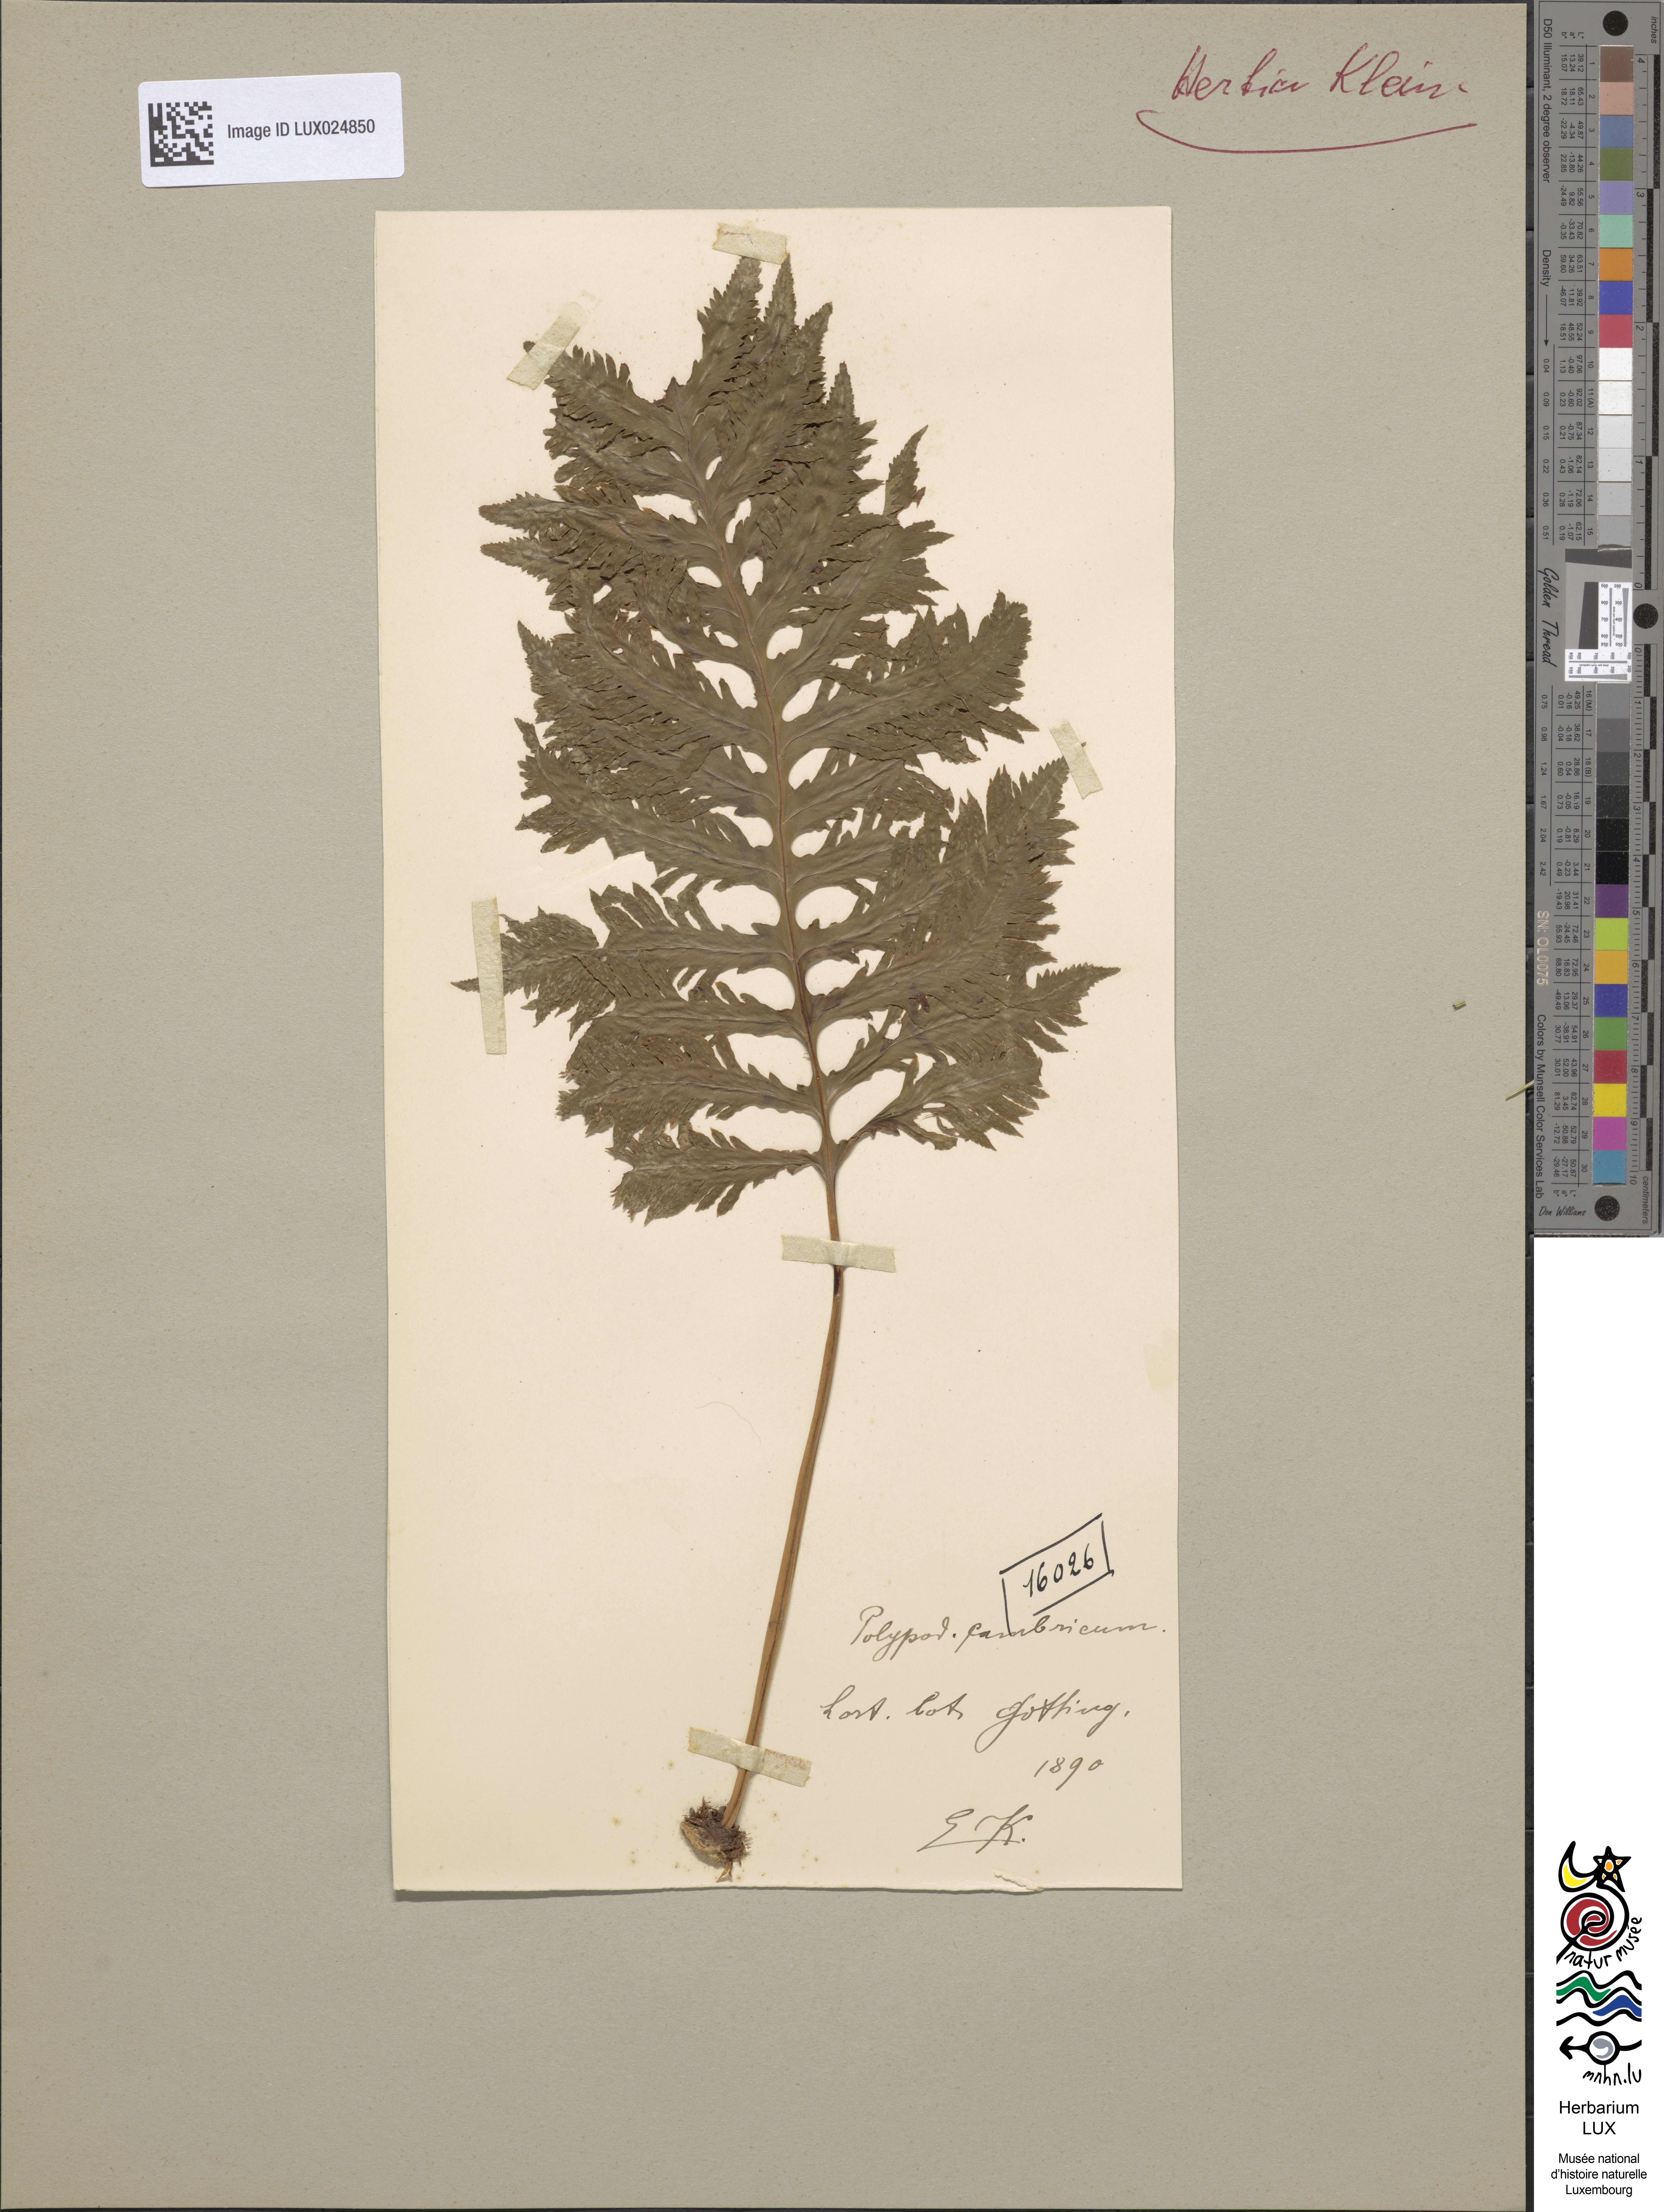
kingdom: Plantae
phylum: Tracheophyta
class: Polypodiopsida
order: Polypodiales
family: Polypodiaceae
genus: Polypodium
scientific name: Polypodium cambricum
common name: Southern polypody
